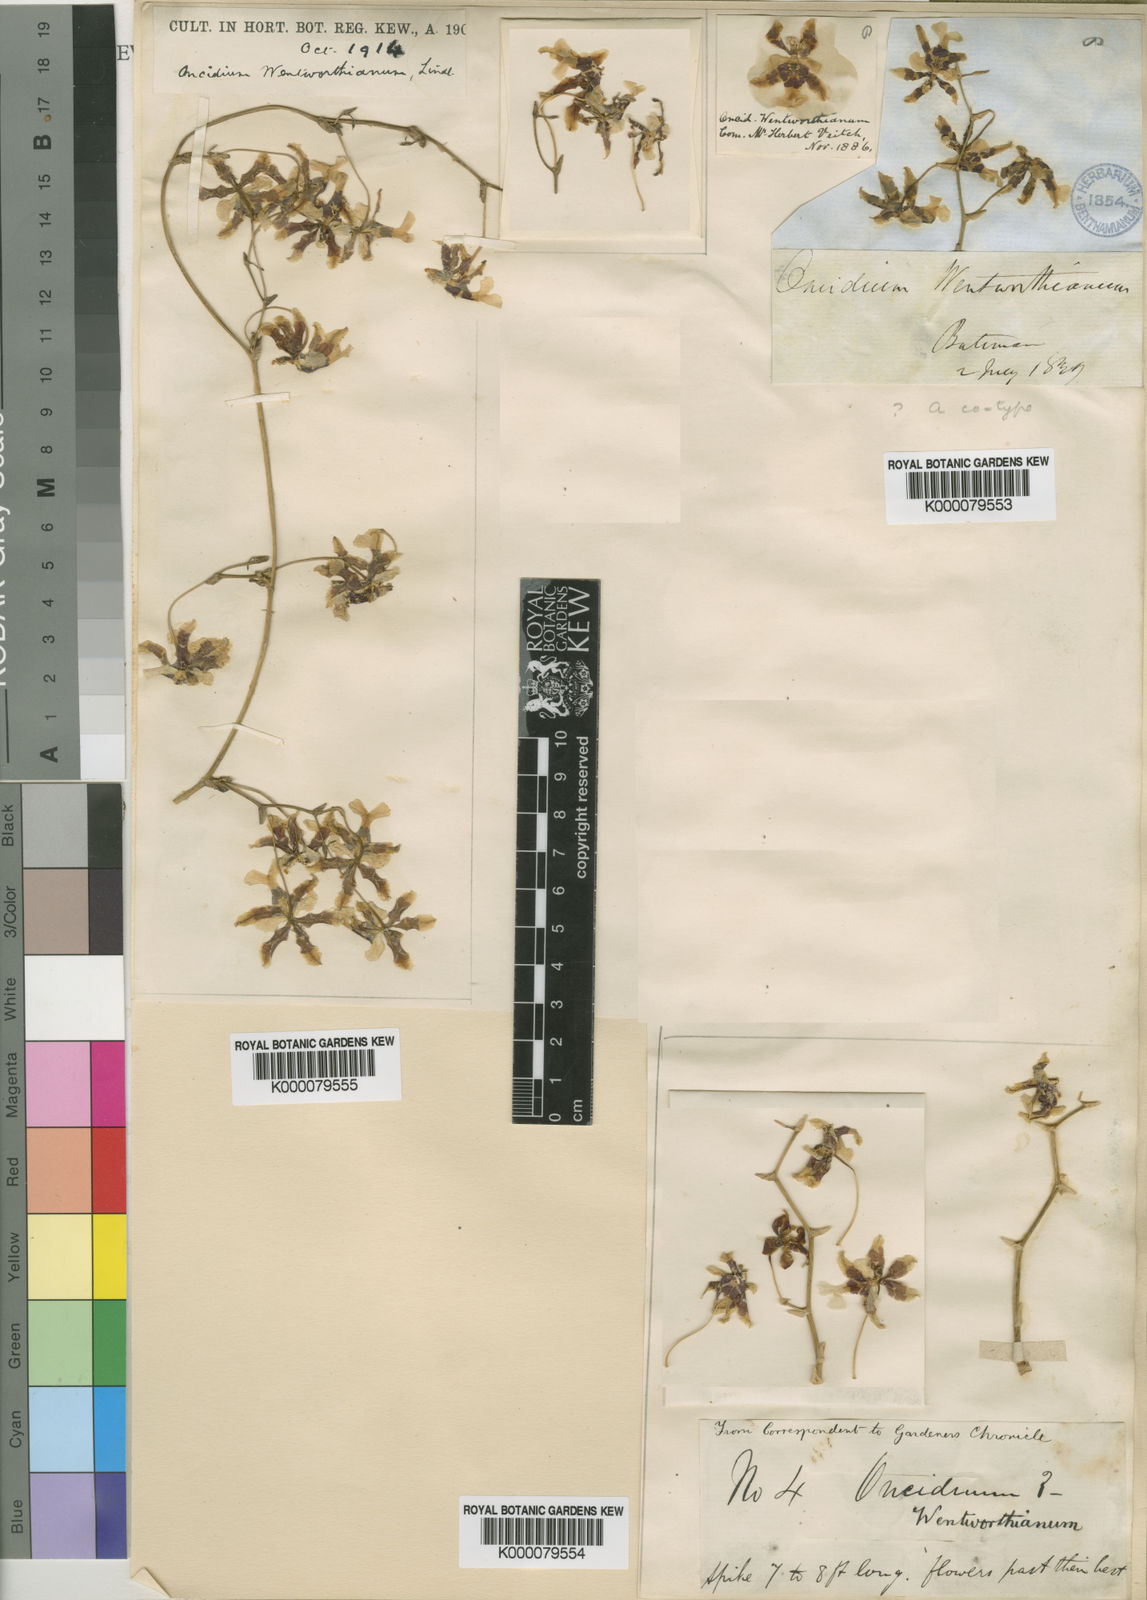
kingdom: Plantae
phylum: Tracheophyta
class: Liliopsida
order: Asparagales
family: Orchidaceae
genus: Oncidium
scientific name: Oncidium wentworthianum
